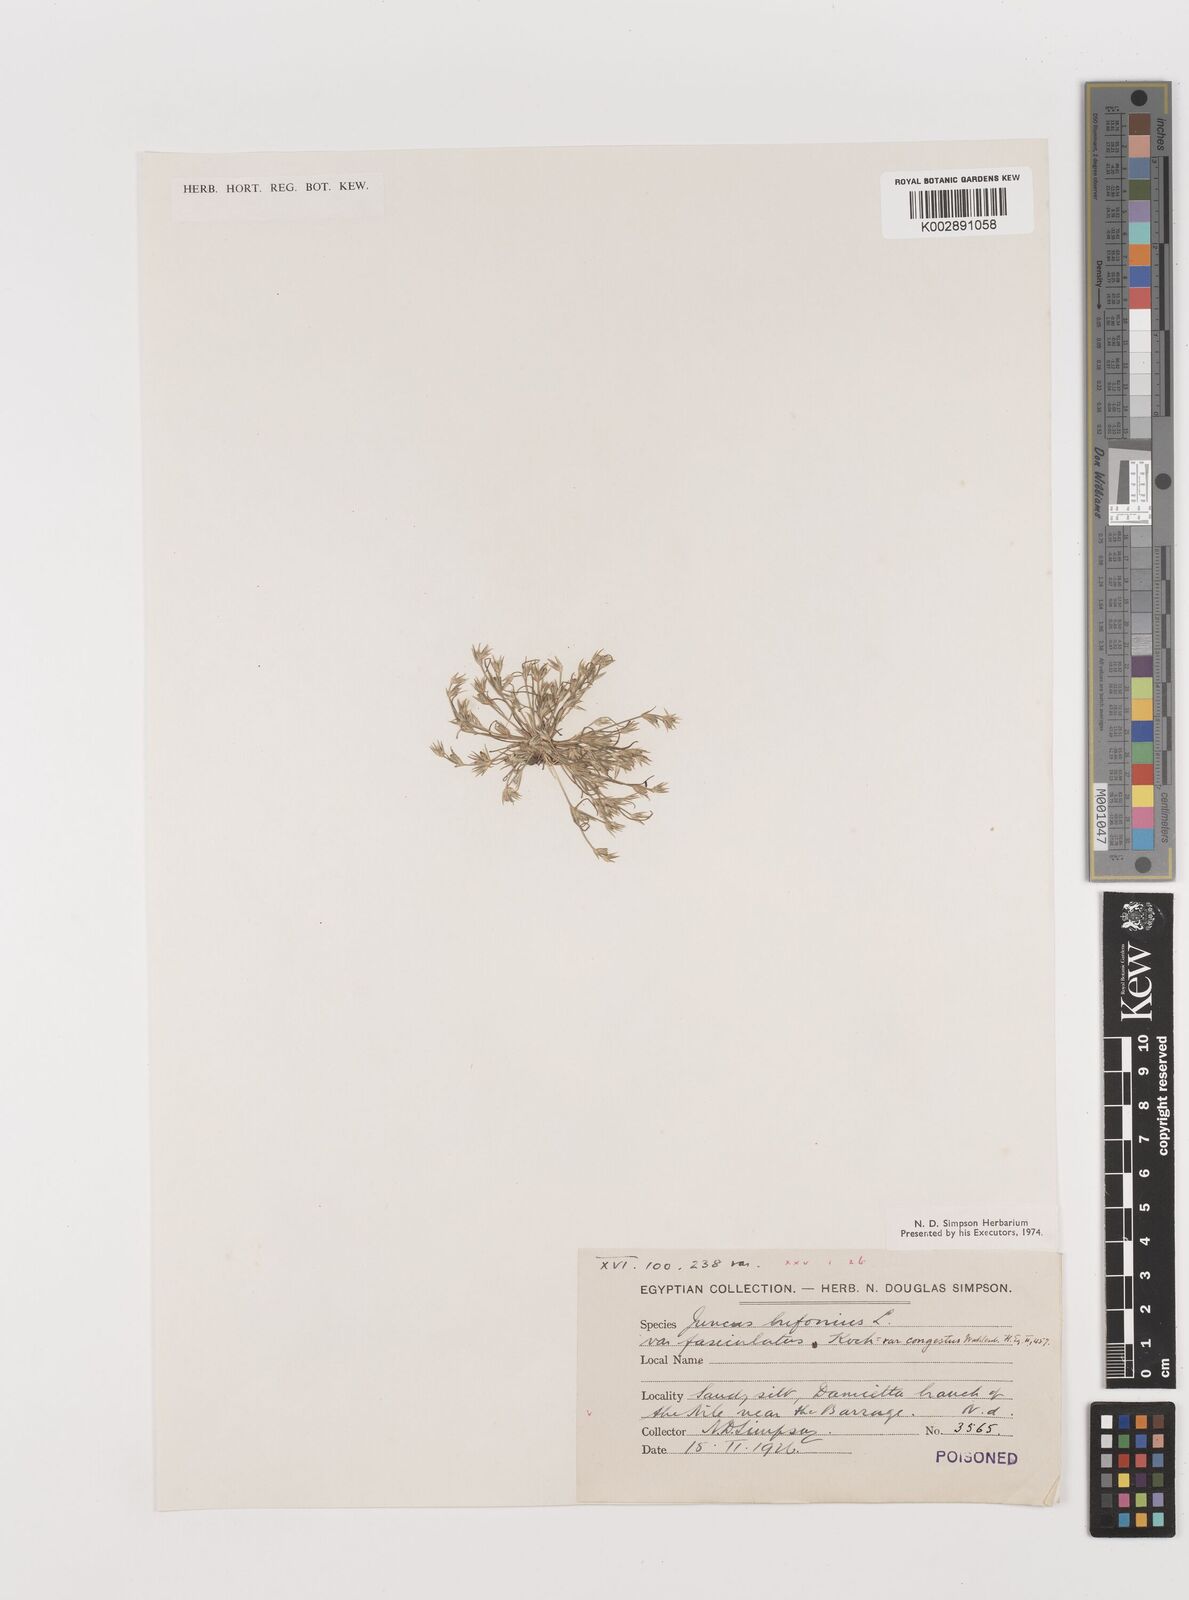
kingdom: Plantae
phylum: Tracheophyta
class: Liliopsida
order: Poales
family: Juncaceae
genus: Juncus
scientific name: Juncus bufonius
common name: Toad rush
